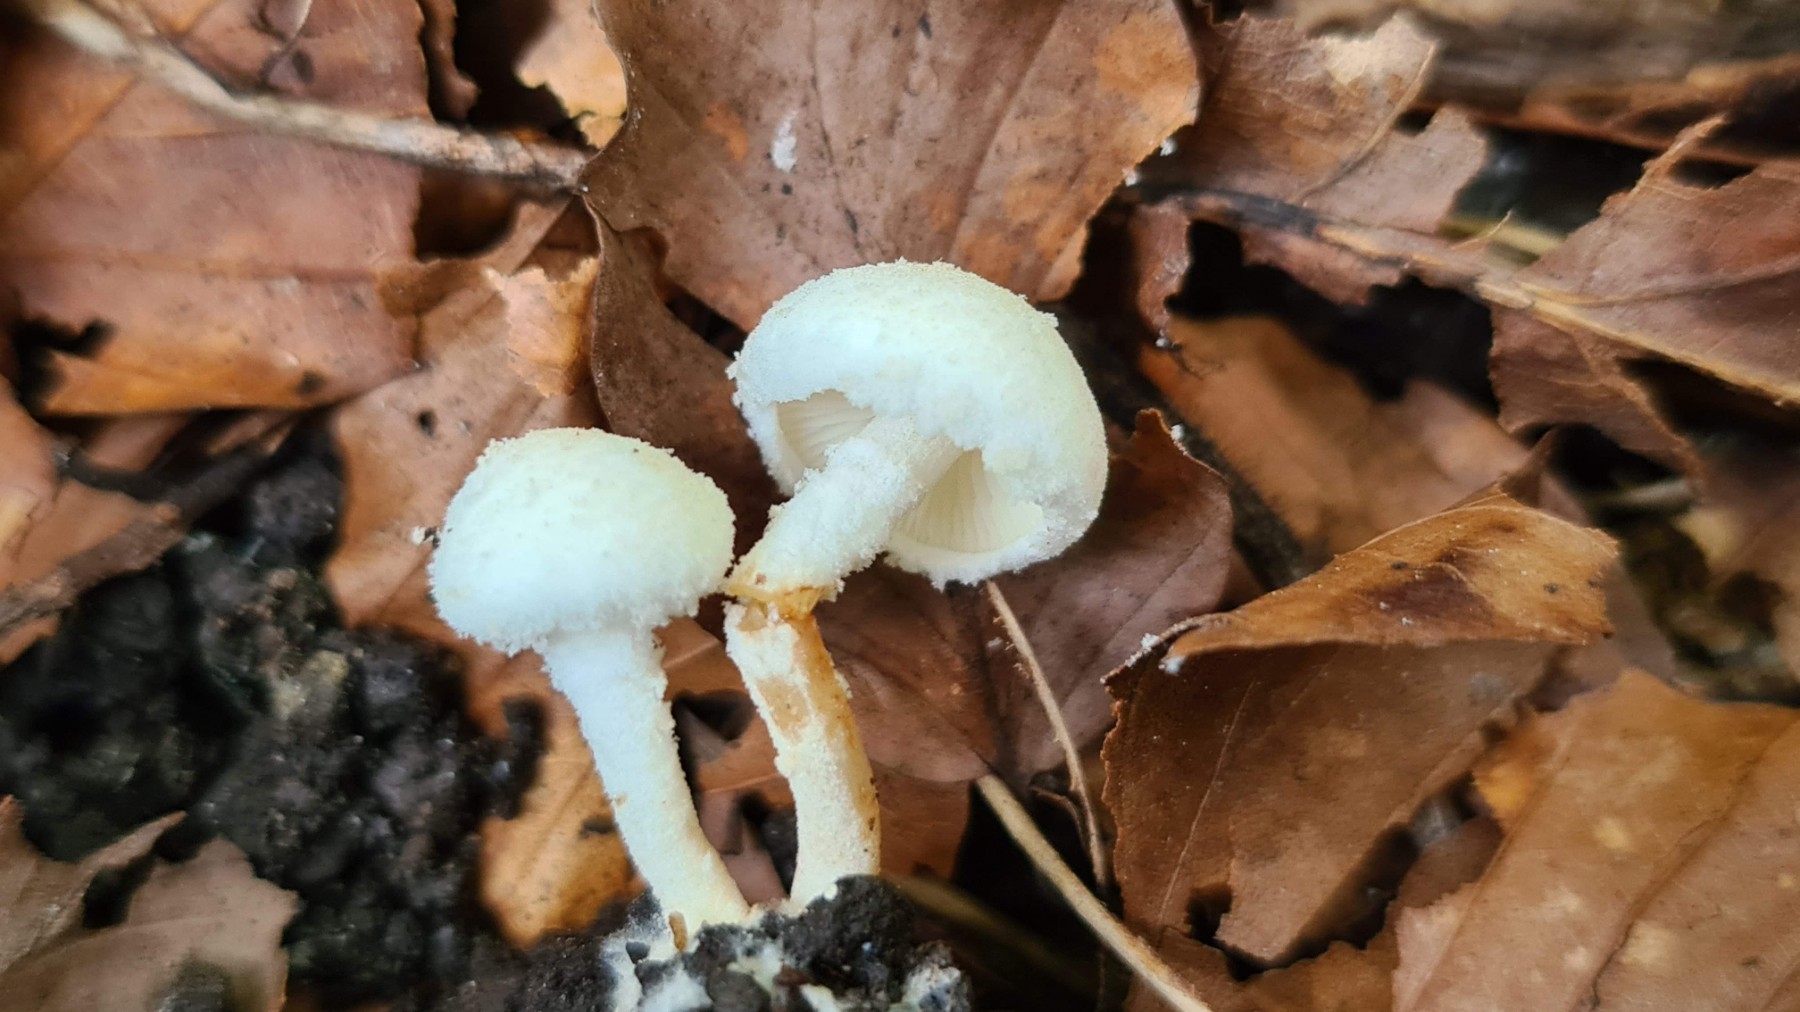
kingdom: Fungi
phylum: Basidiomycota
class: Agaricomycetes
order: Agaricales
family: Agaricaceae
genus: Cystolepiota
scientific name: Cystolepiota hetieri
